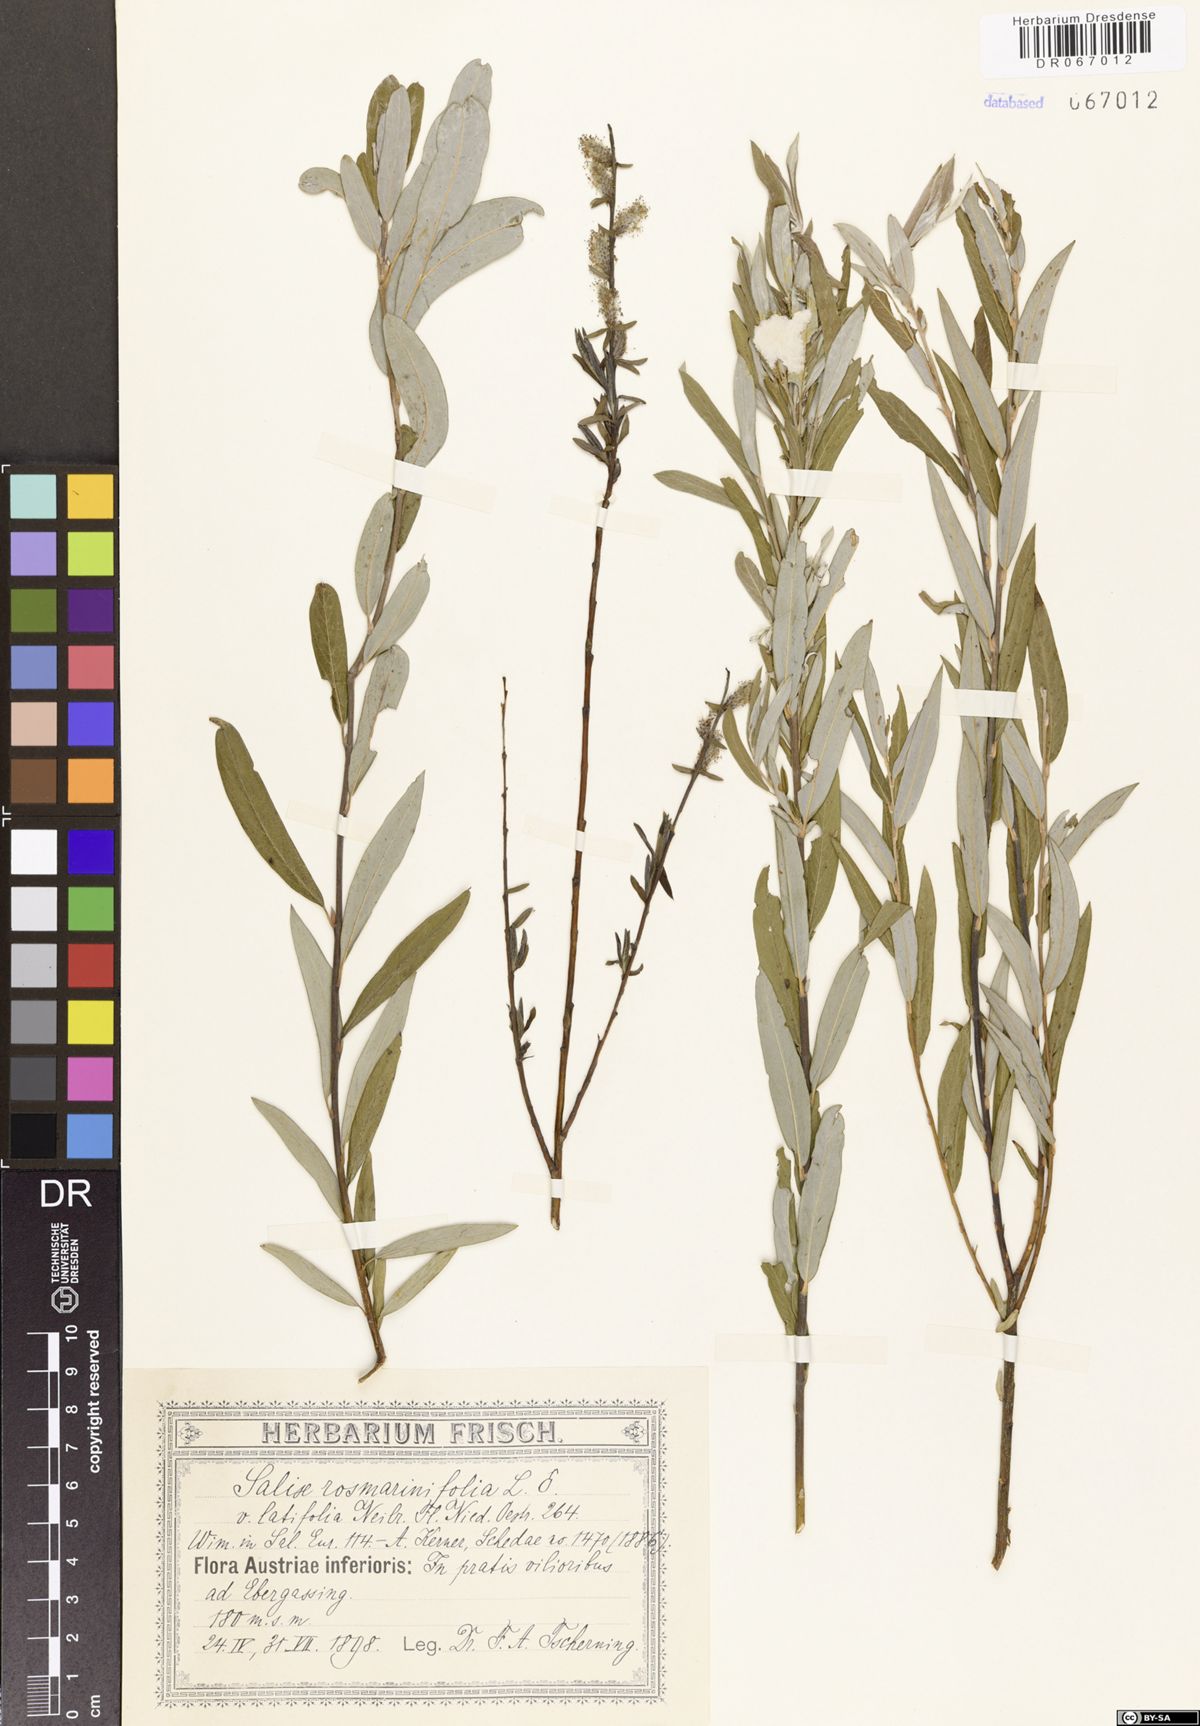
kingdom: Plantae
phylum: Tracheophyta
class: Magnoliopsida
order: Malpighiales
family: Salicaceae
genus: Salix
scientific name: Salix rosmarinifolia
